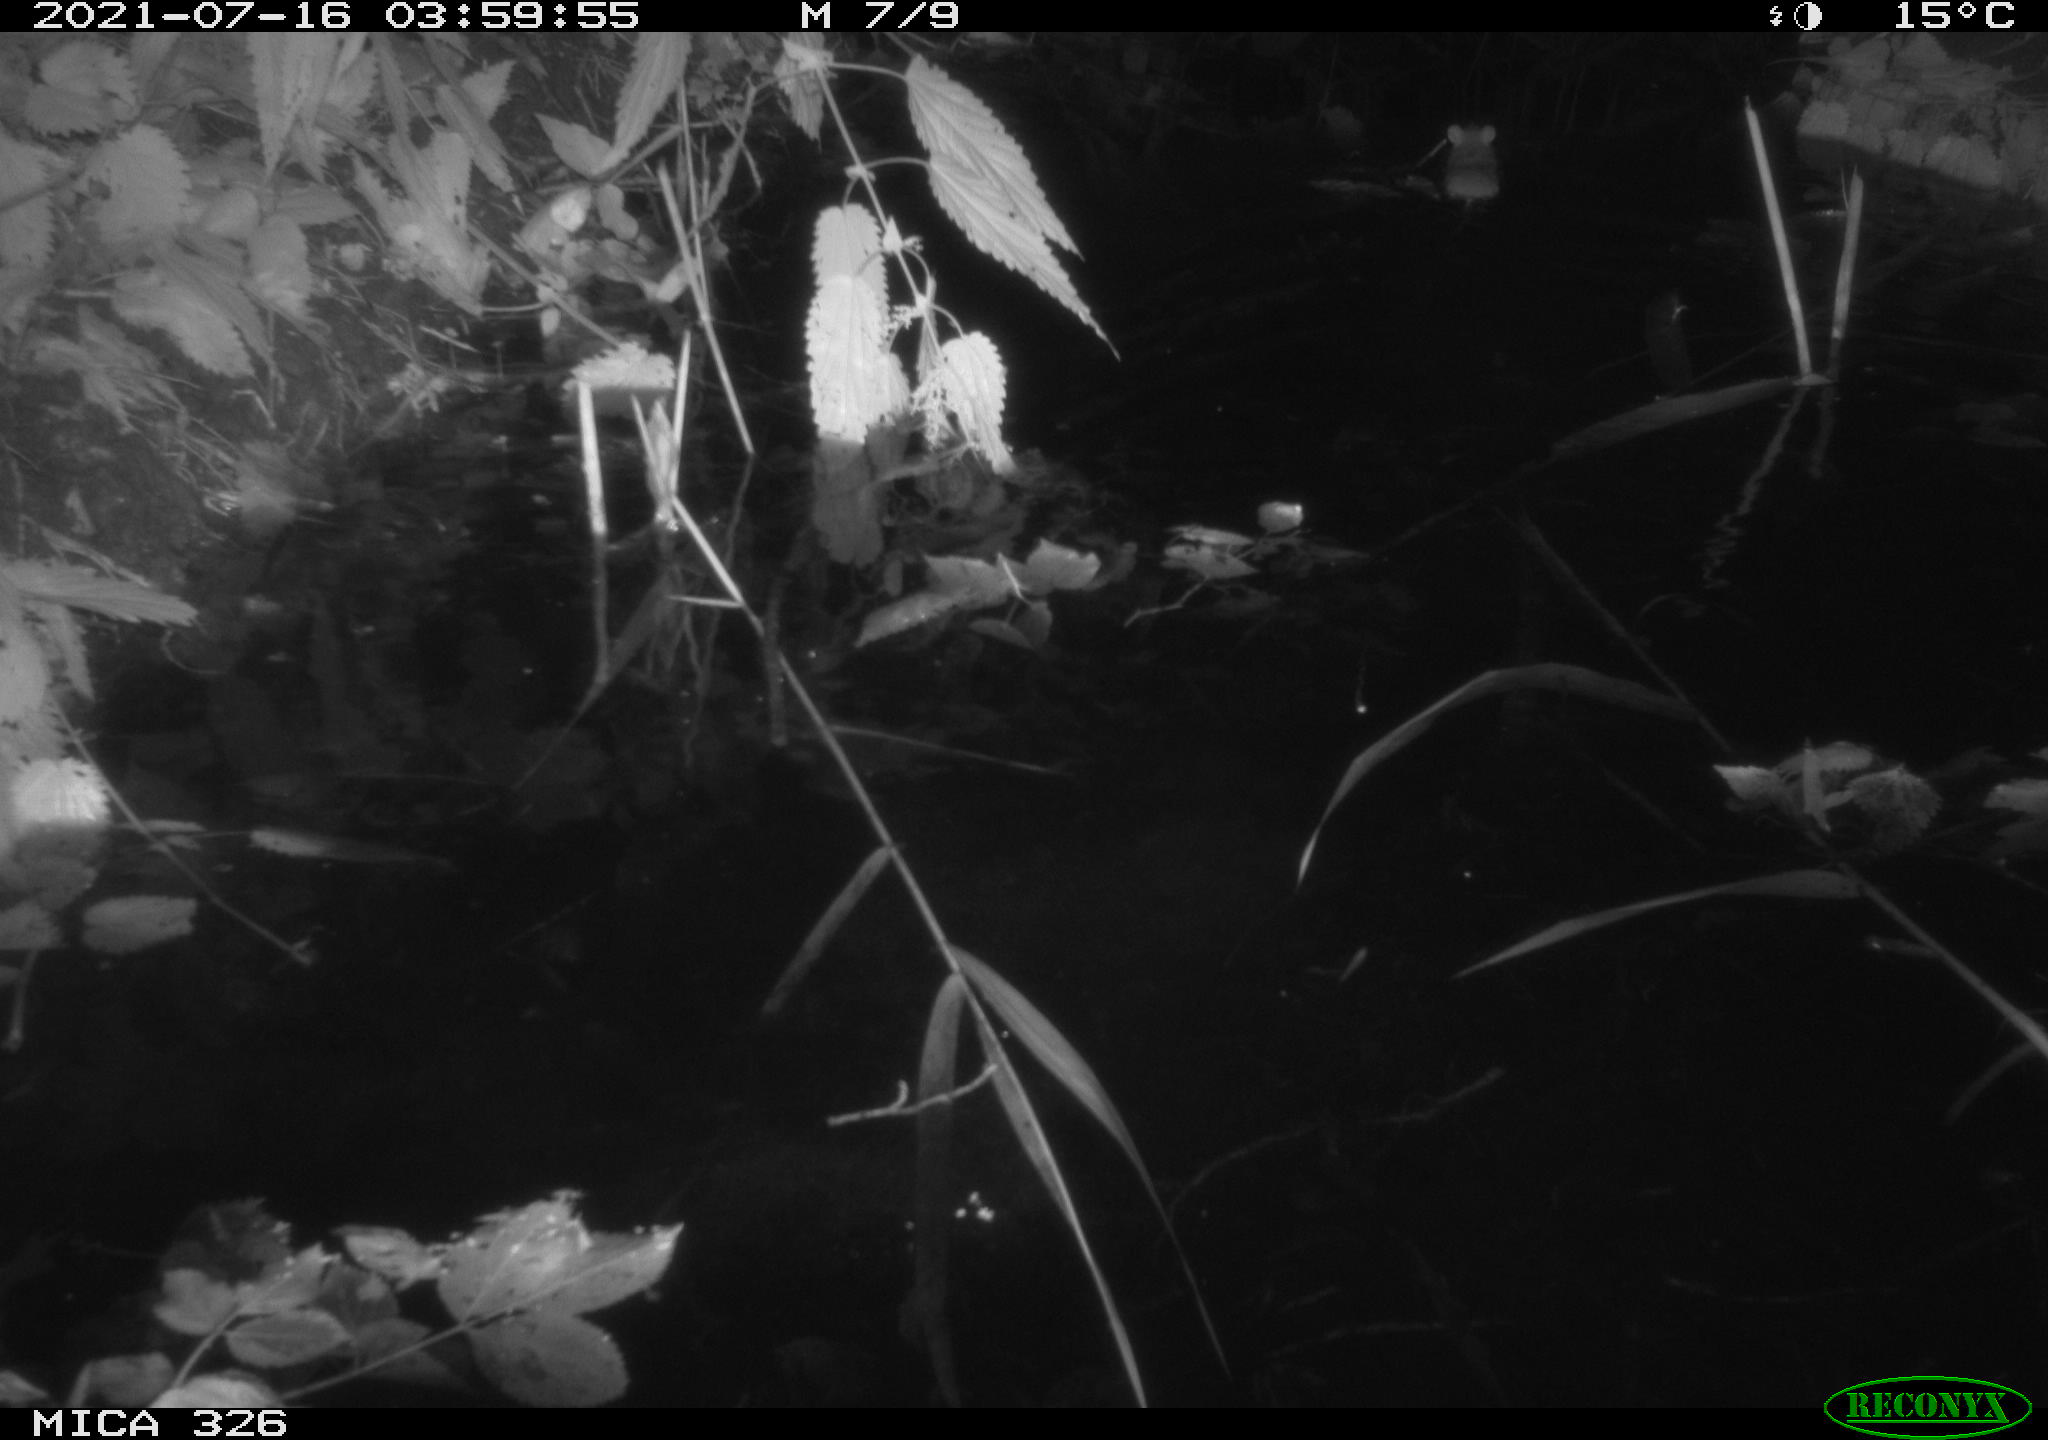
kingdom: Animalia
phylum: Chordata
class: Mammalia
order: Rodentia
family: Muridae
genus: Rattus
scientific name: Rattus norvegicus
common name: Brown rat
